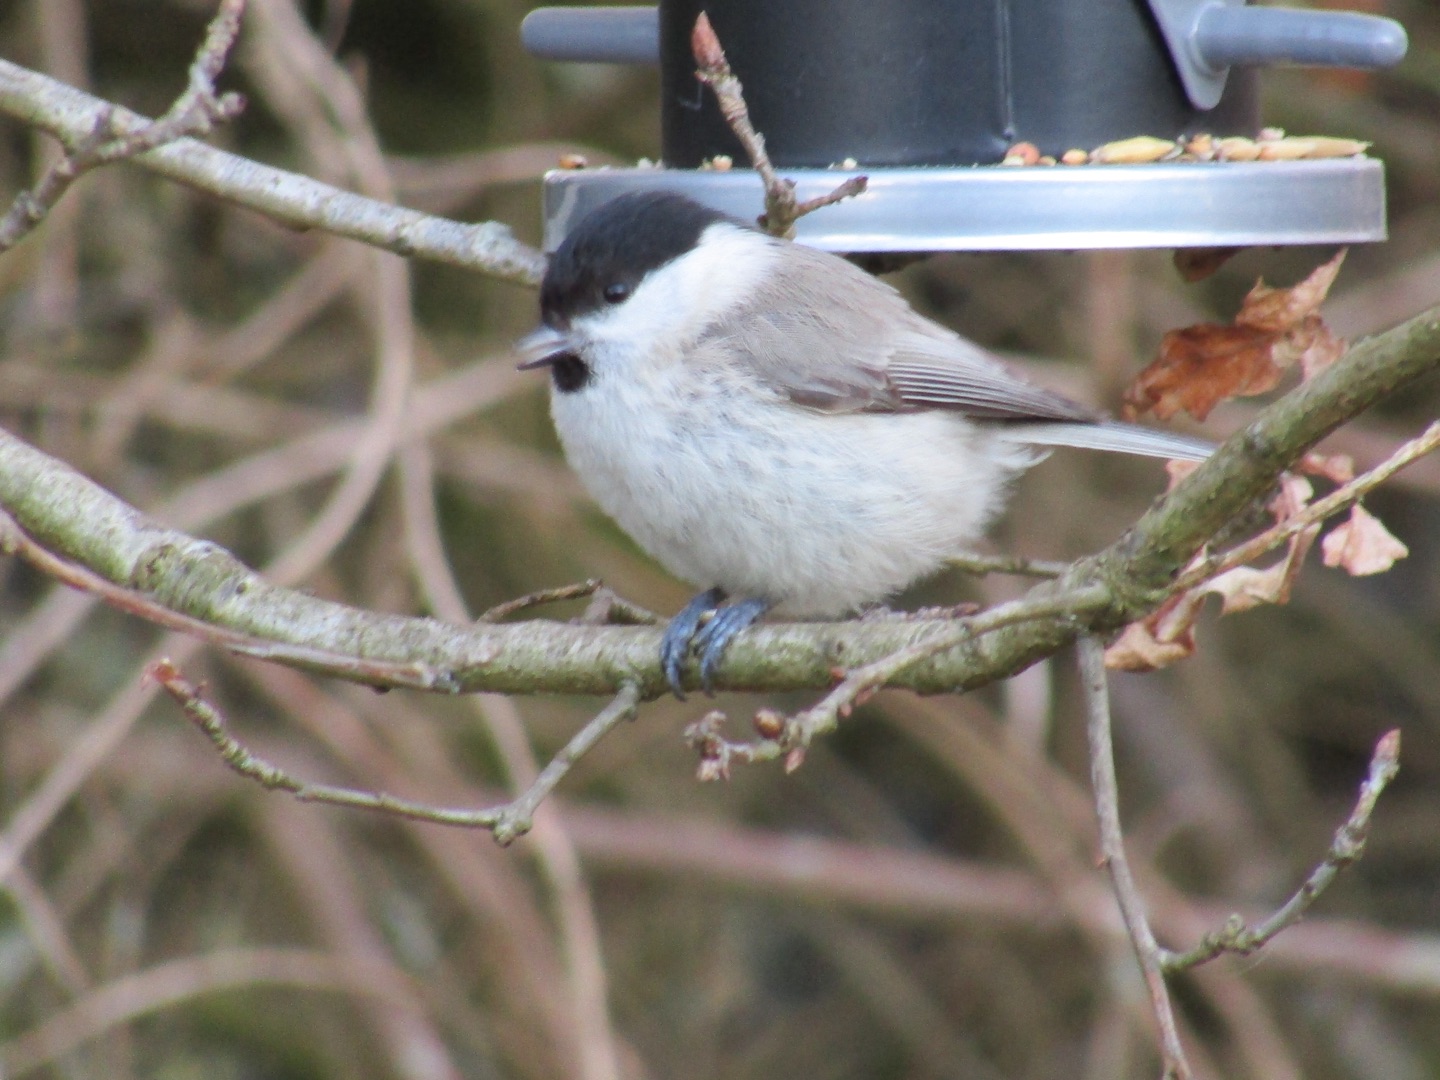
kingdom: Animalia
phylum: Chordata
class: Aves
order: Passeriformes
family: Paridae
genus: Poecile
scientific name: Poecile palustris
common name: Sumpmejse
